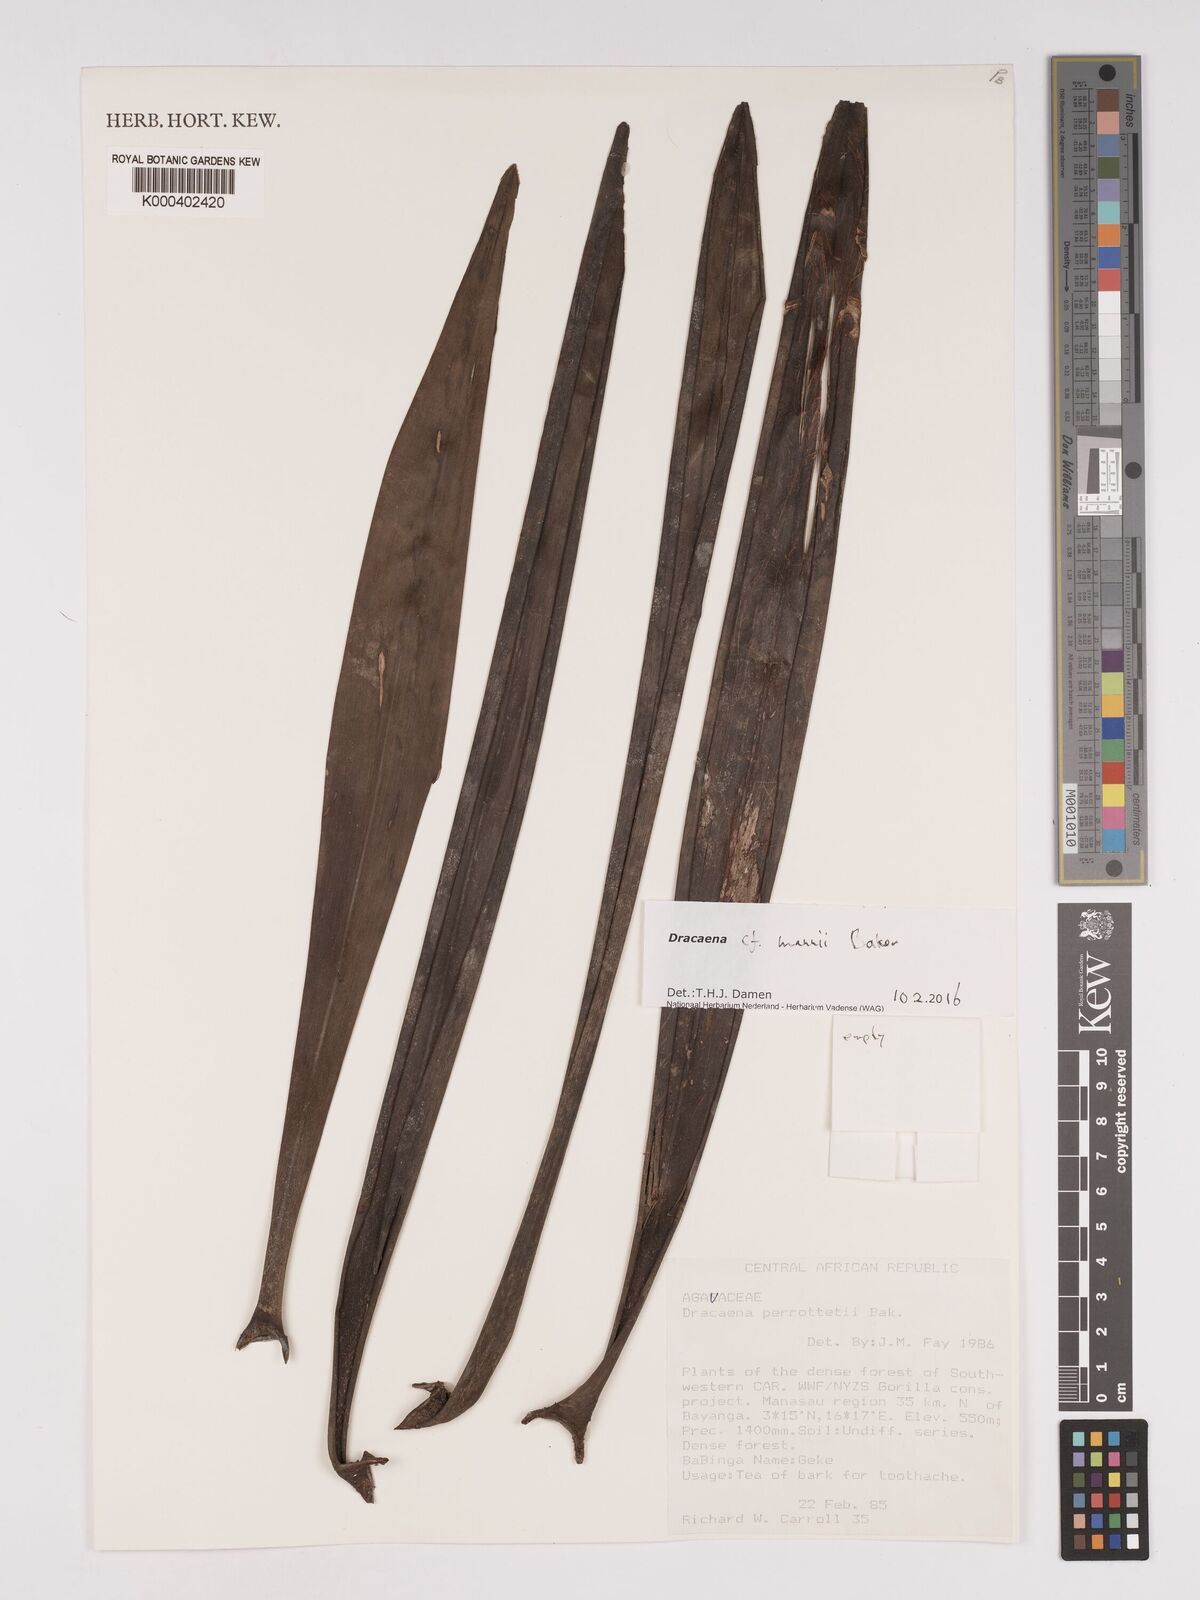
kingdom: Plantae
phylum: Tracheophyta
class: Liliopsida
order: Asparagales
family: Asparagaceae
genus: Dracaena
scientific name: Dracaena mannii
